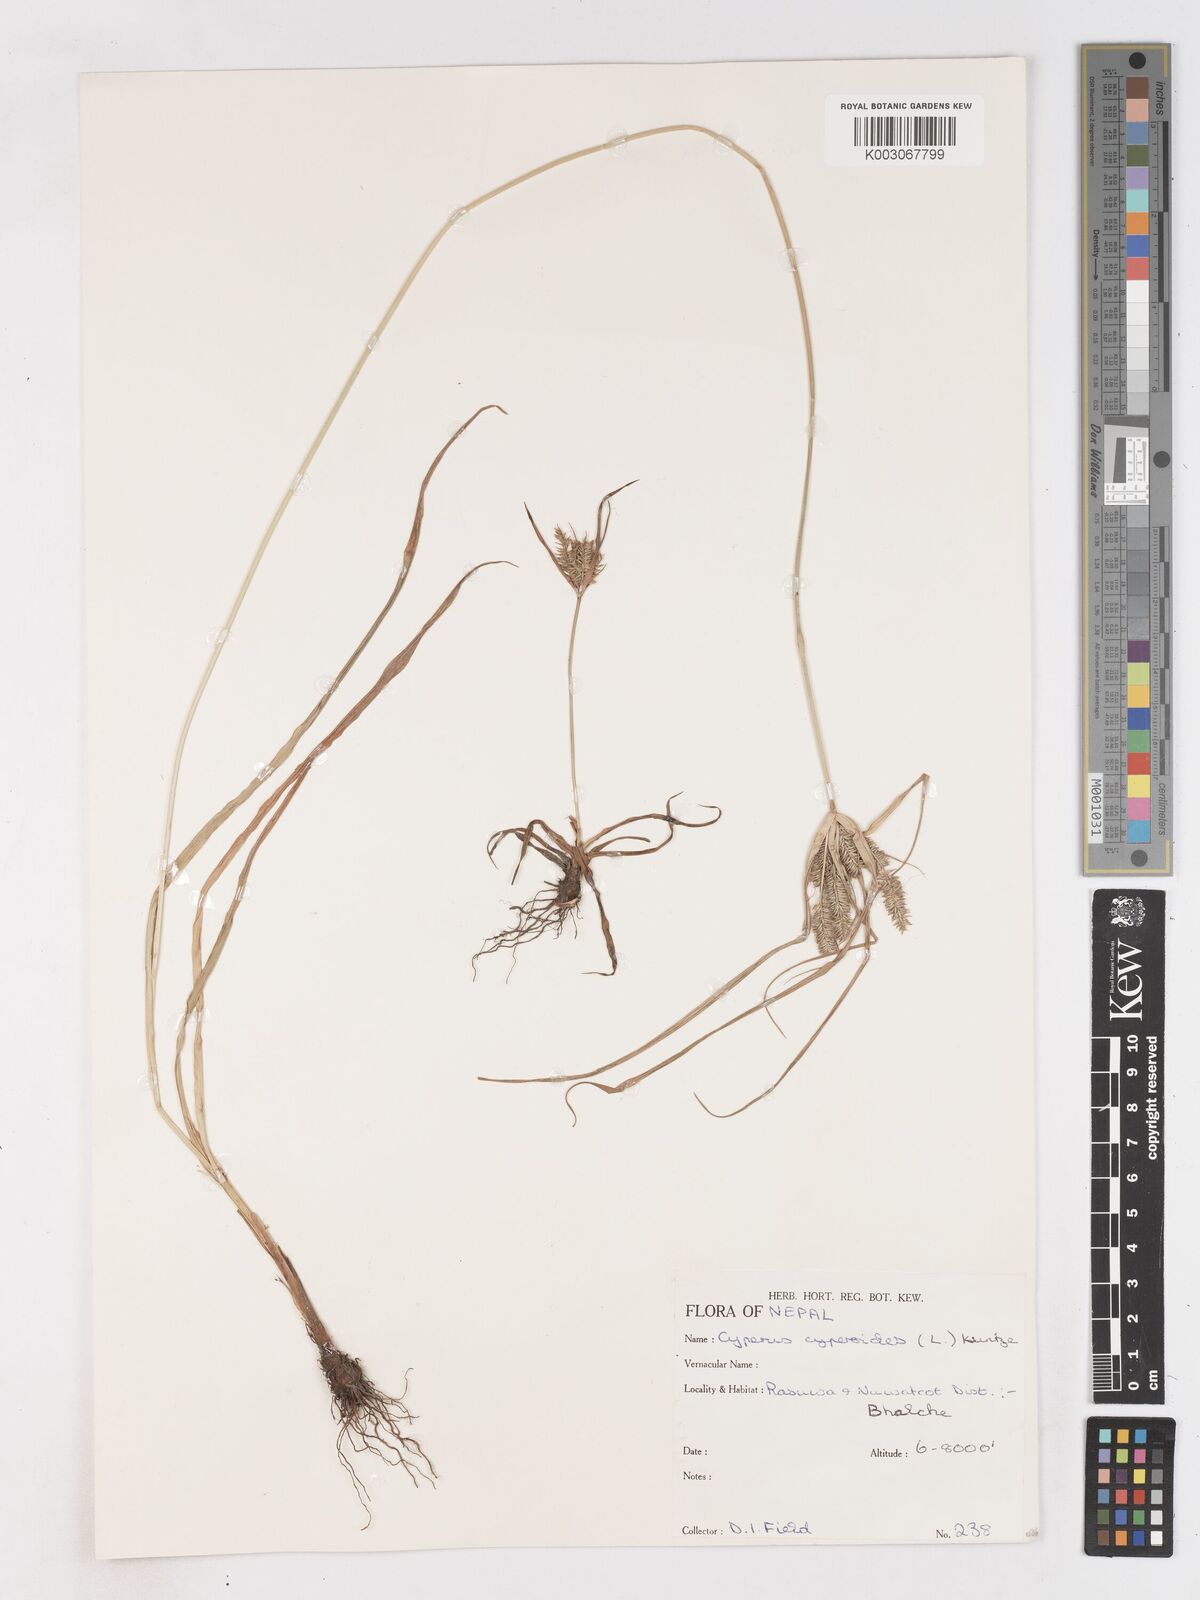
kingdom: Plantae
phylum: Tracheophyta
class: Liliopsida
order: Poales
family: Cyperaceae
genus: Cyperus
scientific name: Cyperus cyperoides
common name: Pacific island flat sedge
